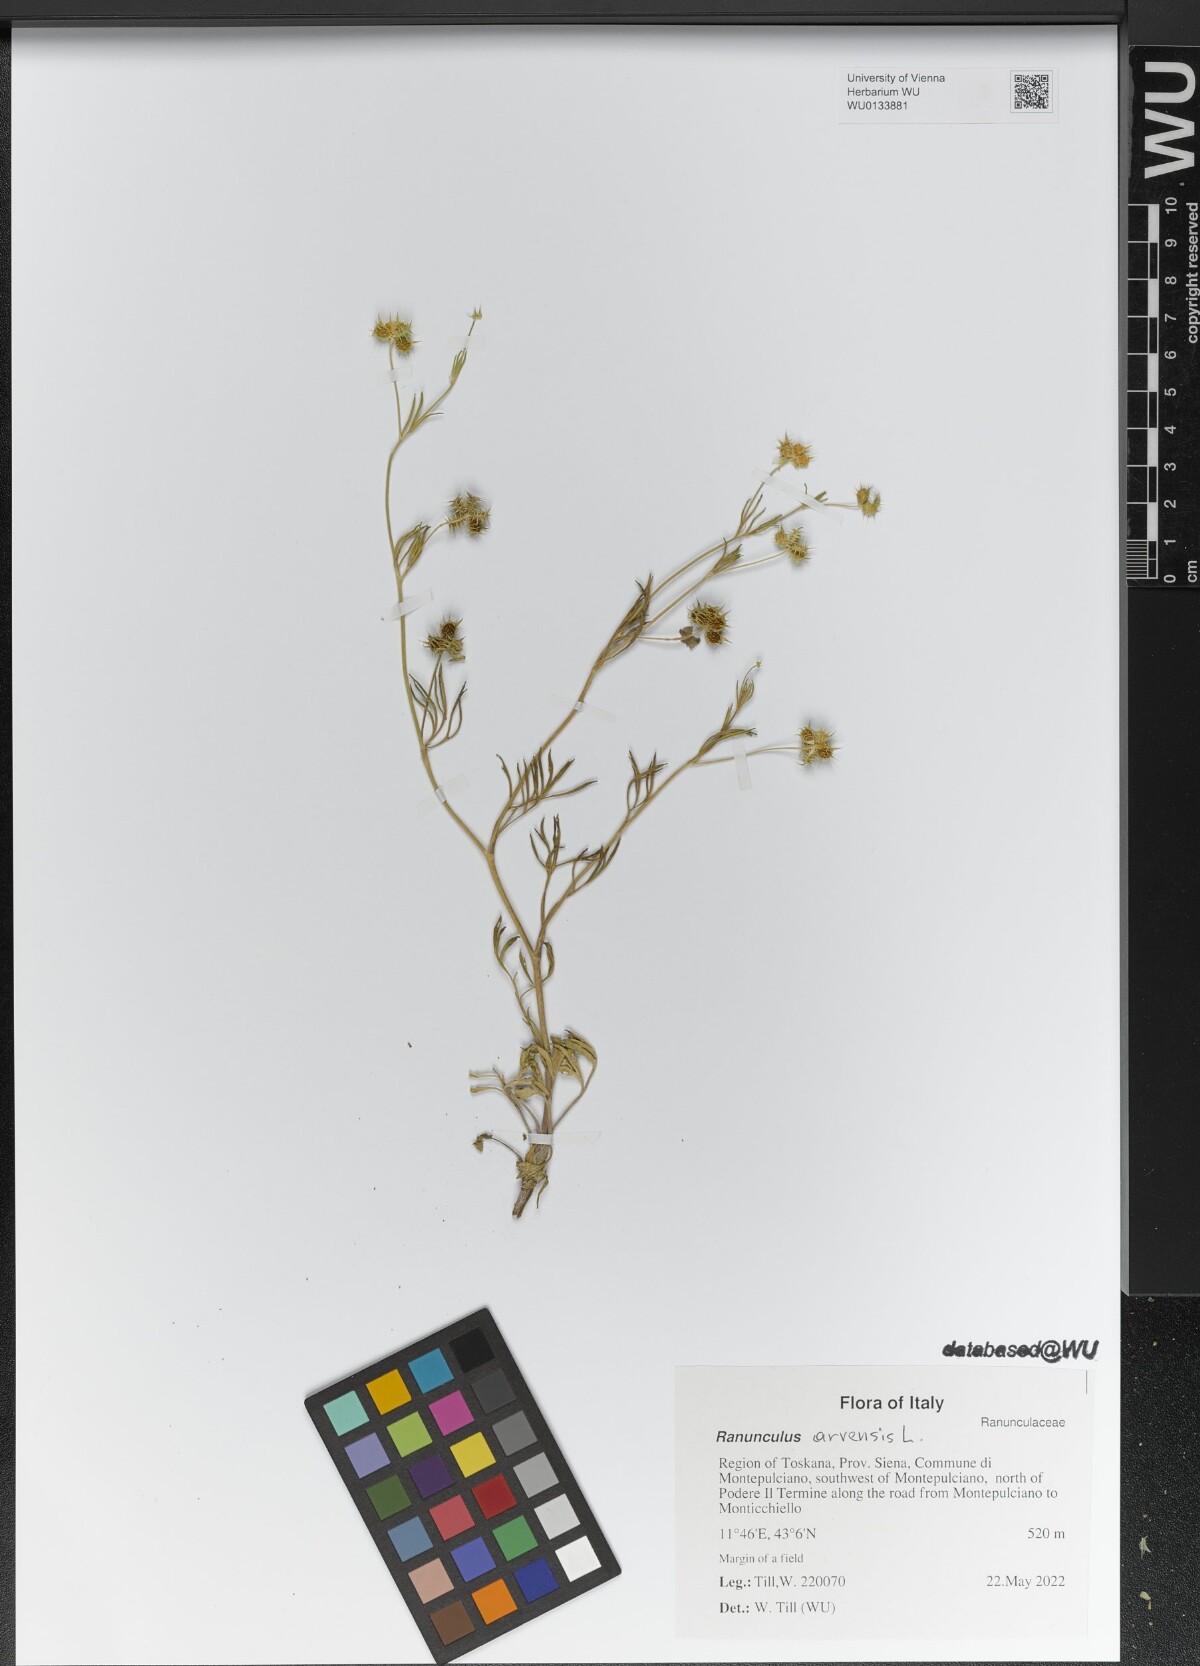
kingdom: Plantae
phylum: Tracheophyta
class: Magnoliopsida
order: Ranunculales
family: Ranunculaceae
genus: Ranunculus
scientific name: Ranunculus arvensis
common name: Corn buttercup
